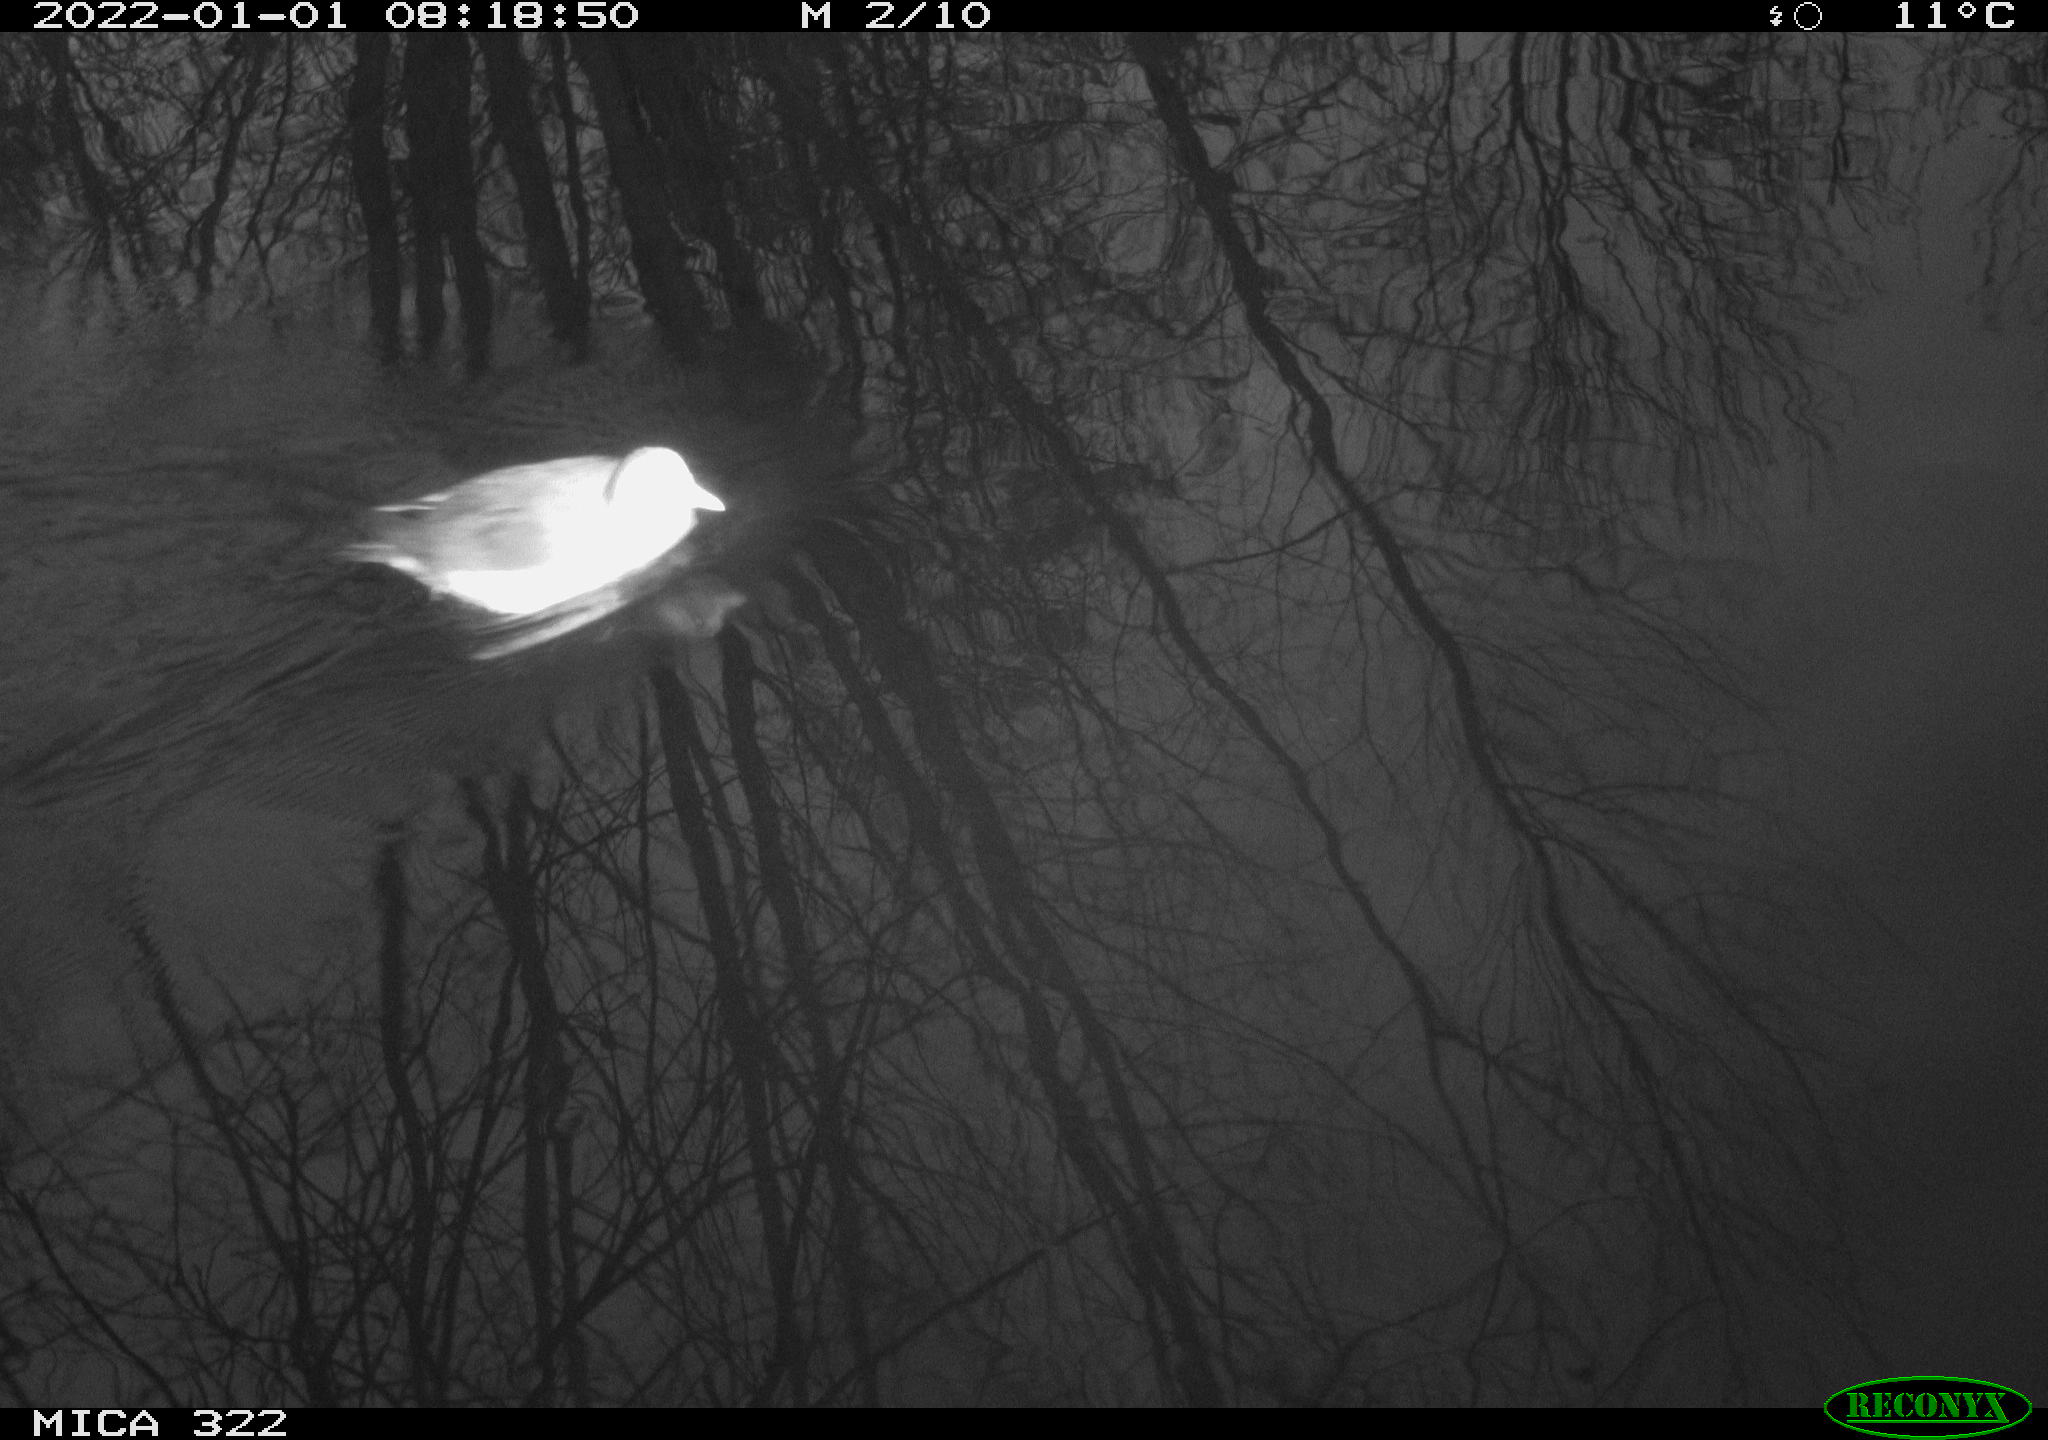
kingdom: Animalia
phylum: Chordata
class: Aves
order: Anseriformes
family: Anatidae
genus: Anas
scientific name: Anas
